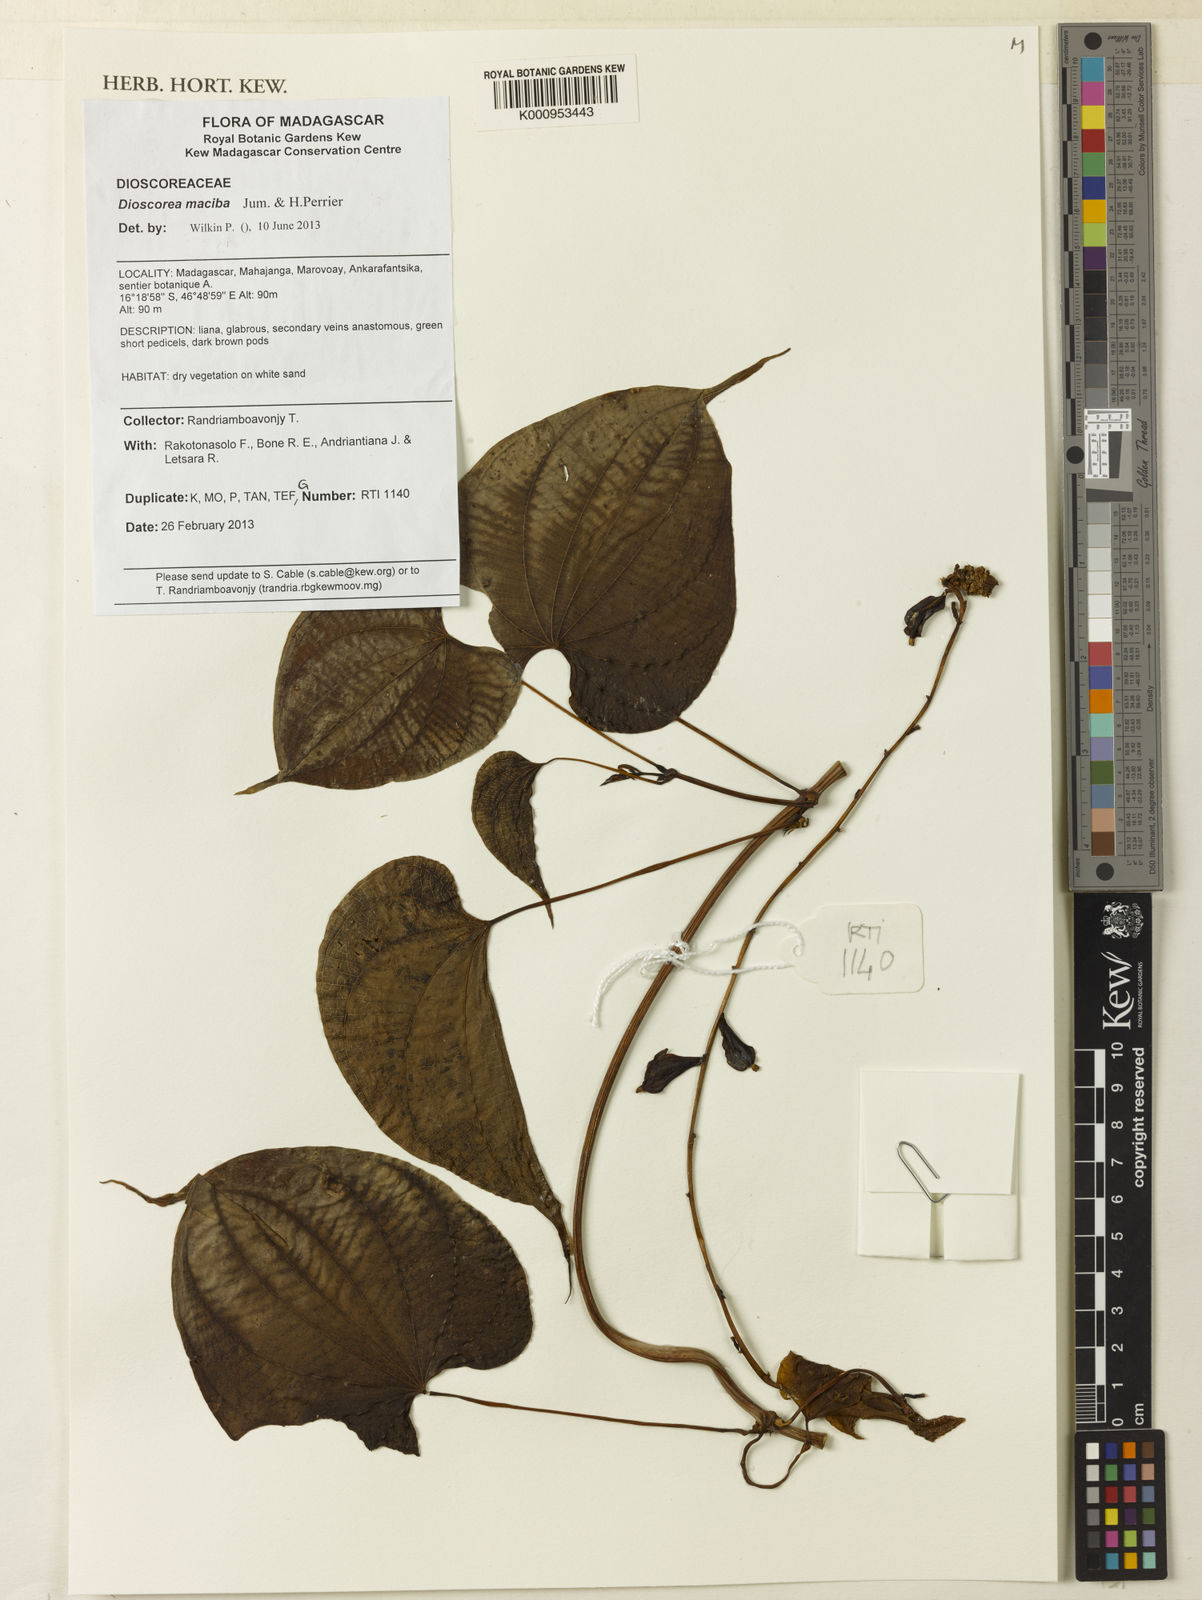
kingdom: Plantae
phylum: Tracheophyta
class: Liliopsida
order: Dioscoreales
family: Dioscoreaceae
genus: Dioscorea
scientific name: Dioscorea maciba
